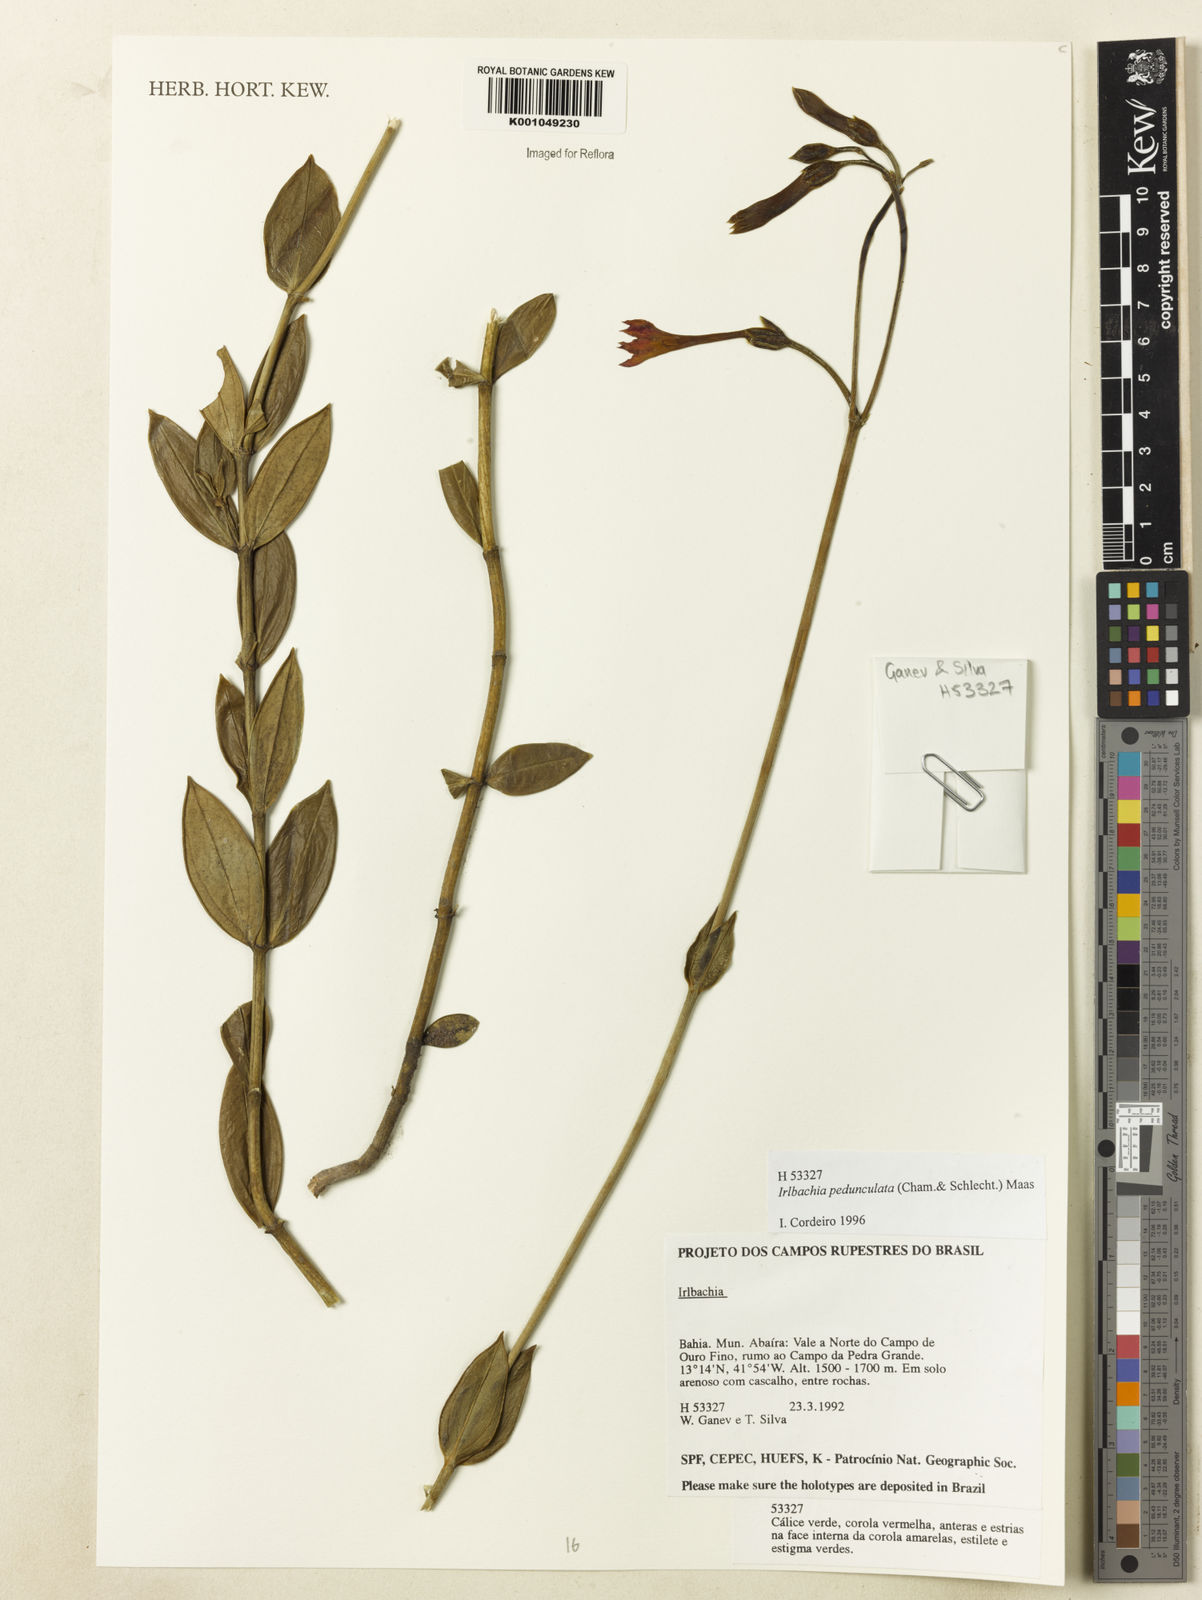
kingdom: Plantae
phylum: Tracheophyta
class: Magnoliopsida
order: Gentianales
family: Gentianaceae
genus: Calolisianthus
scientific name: Calolisianthus pedunculatus
